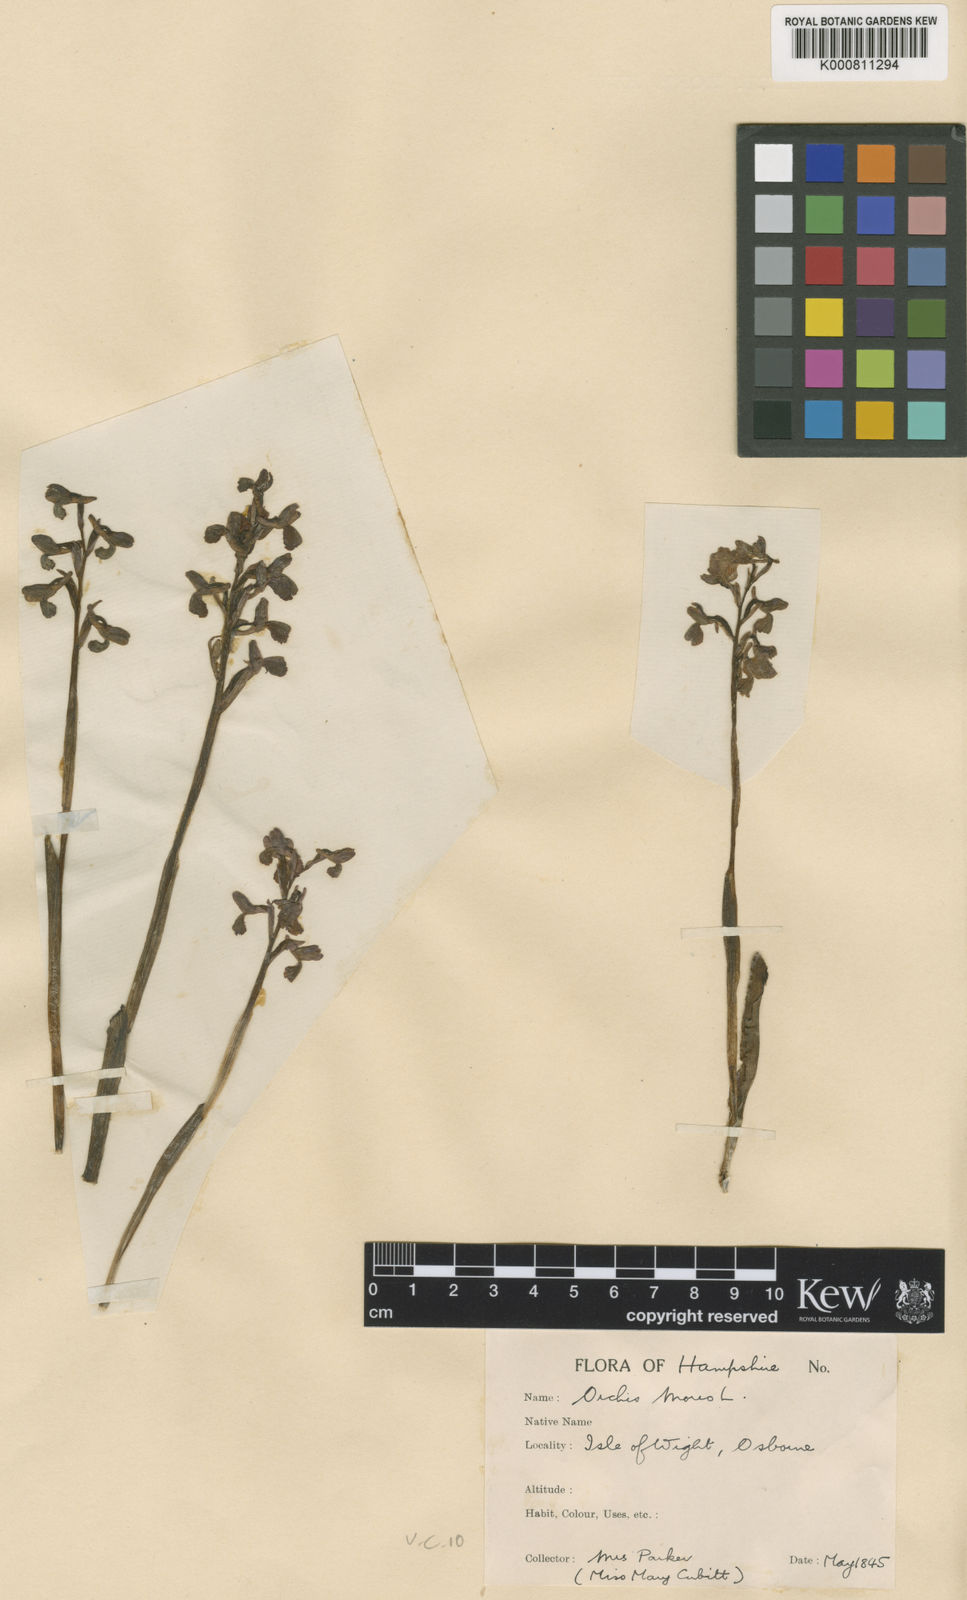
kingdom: Plantae
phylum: Tracheophyta
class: Liliopsida
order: Asparagales
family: Orchidaceae
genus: Anacamptis
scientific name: Anacamptis morio
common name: Green-winged orchid
